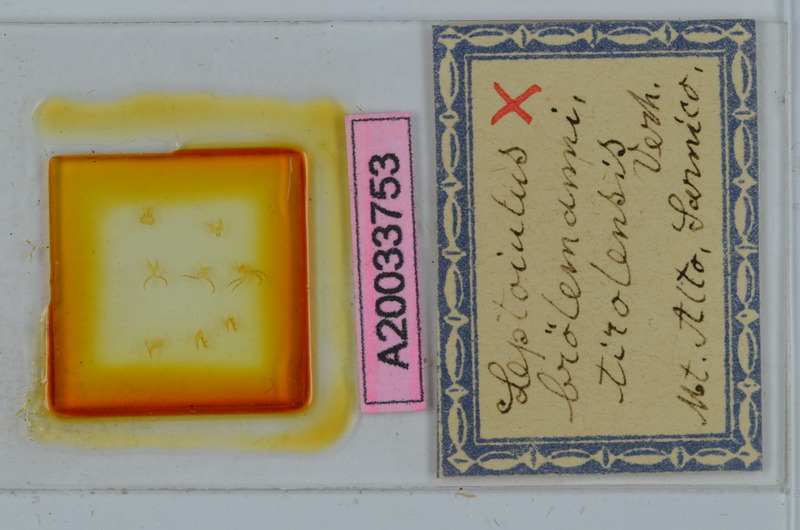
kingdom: Animalia
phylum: Arthropoda
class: Diplopoda
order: Julida
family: Julidae
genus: Leptoiulus
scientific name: Leptoiulus broelemanni
